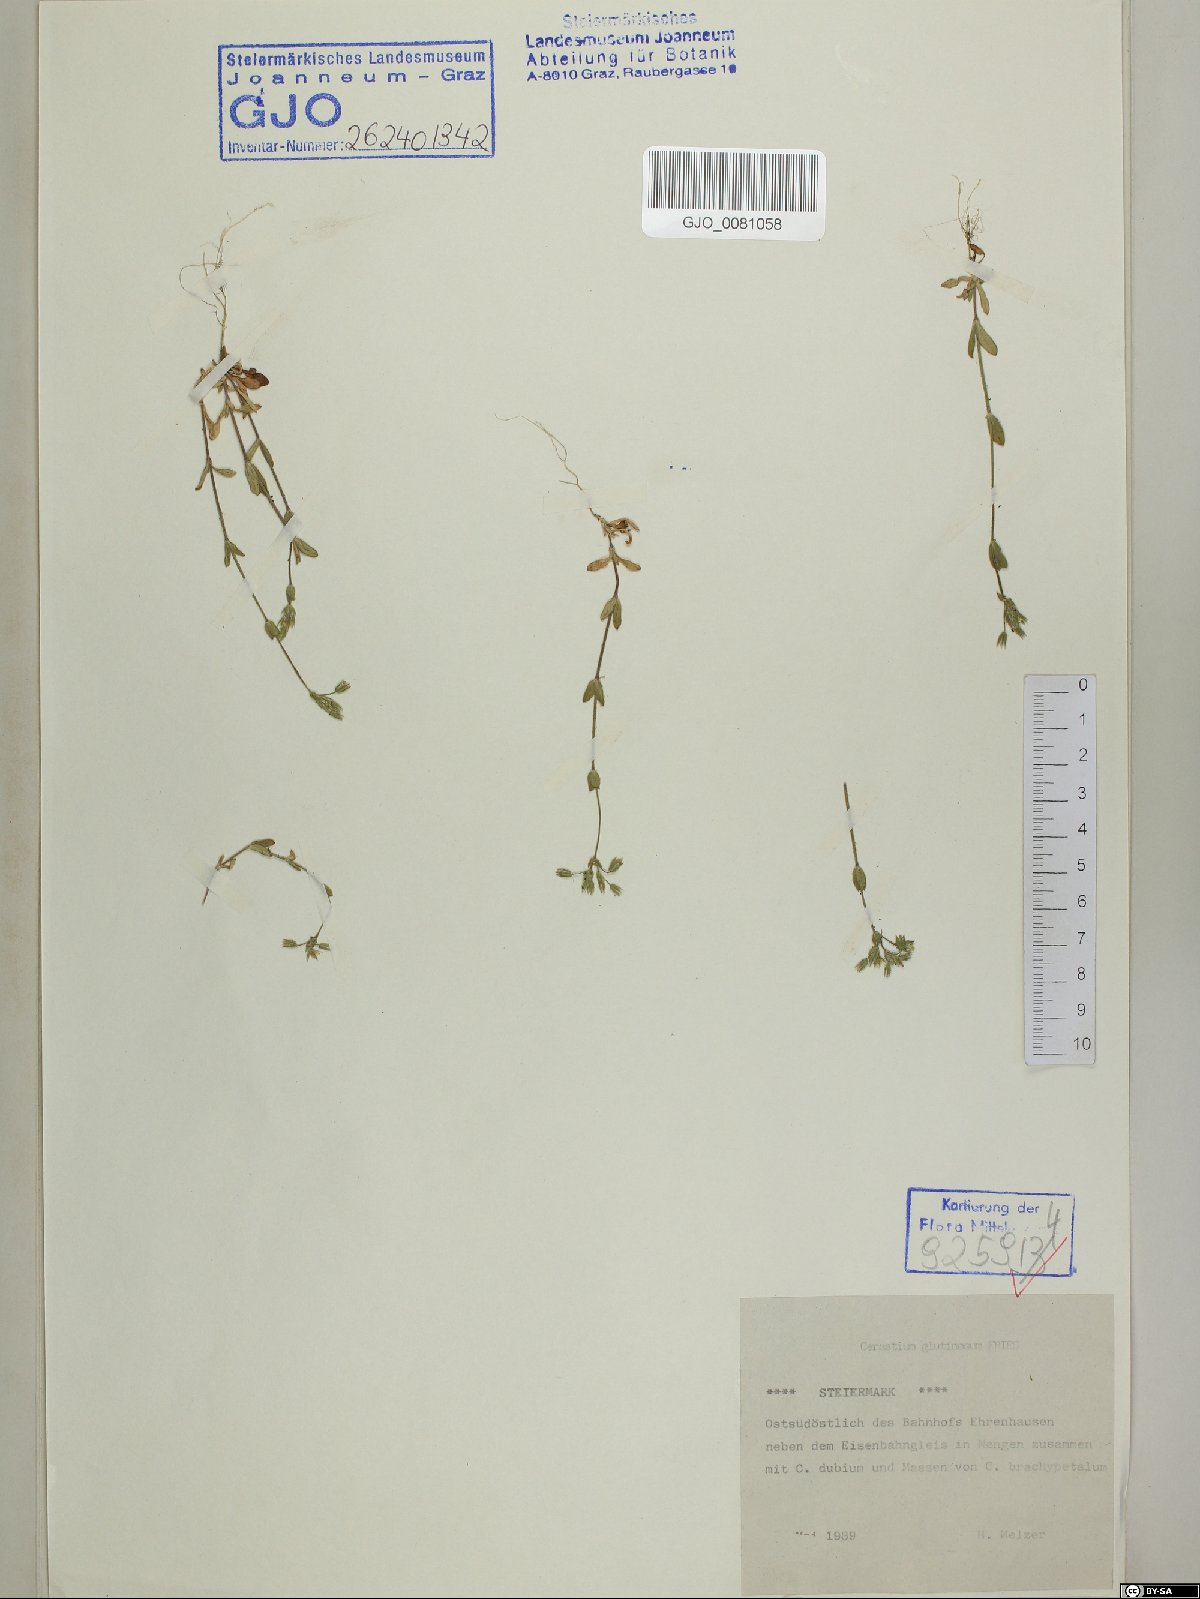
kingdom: Plantae
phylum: Tracheophyta
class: Magnoliopsida
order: Caryophyllales
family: Caryophyllaceae
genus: Cerastium
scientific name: Cerastium glutinosum
